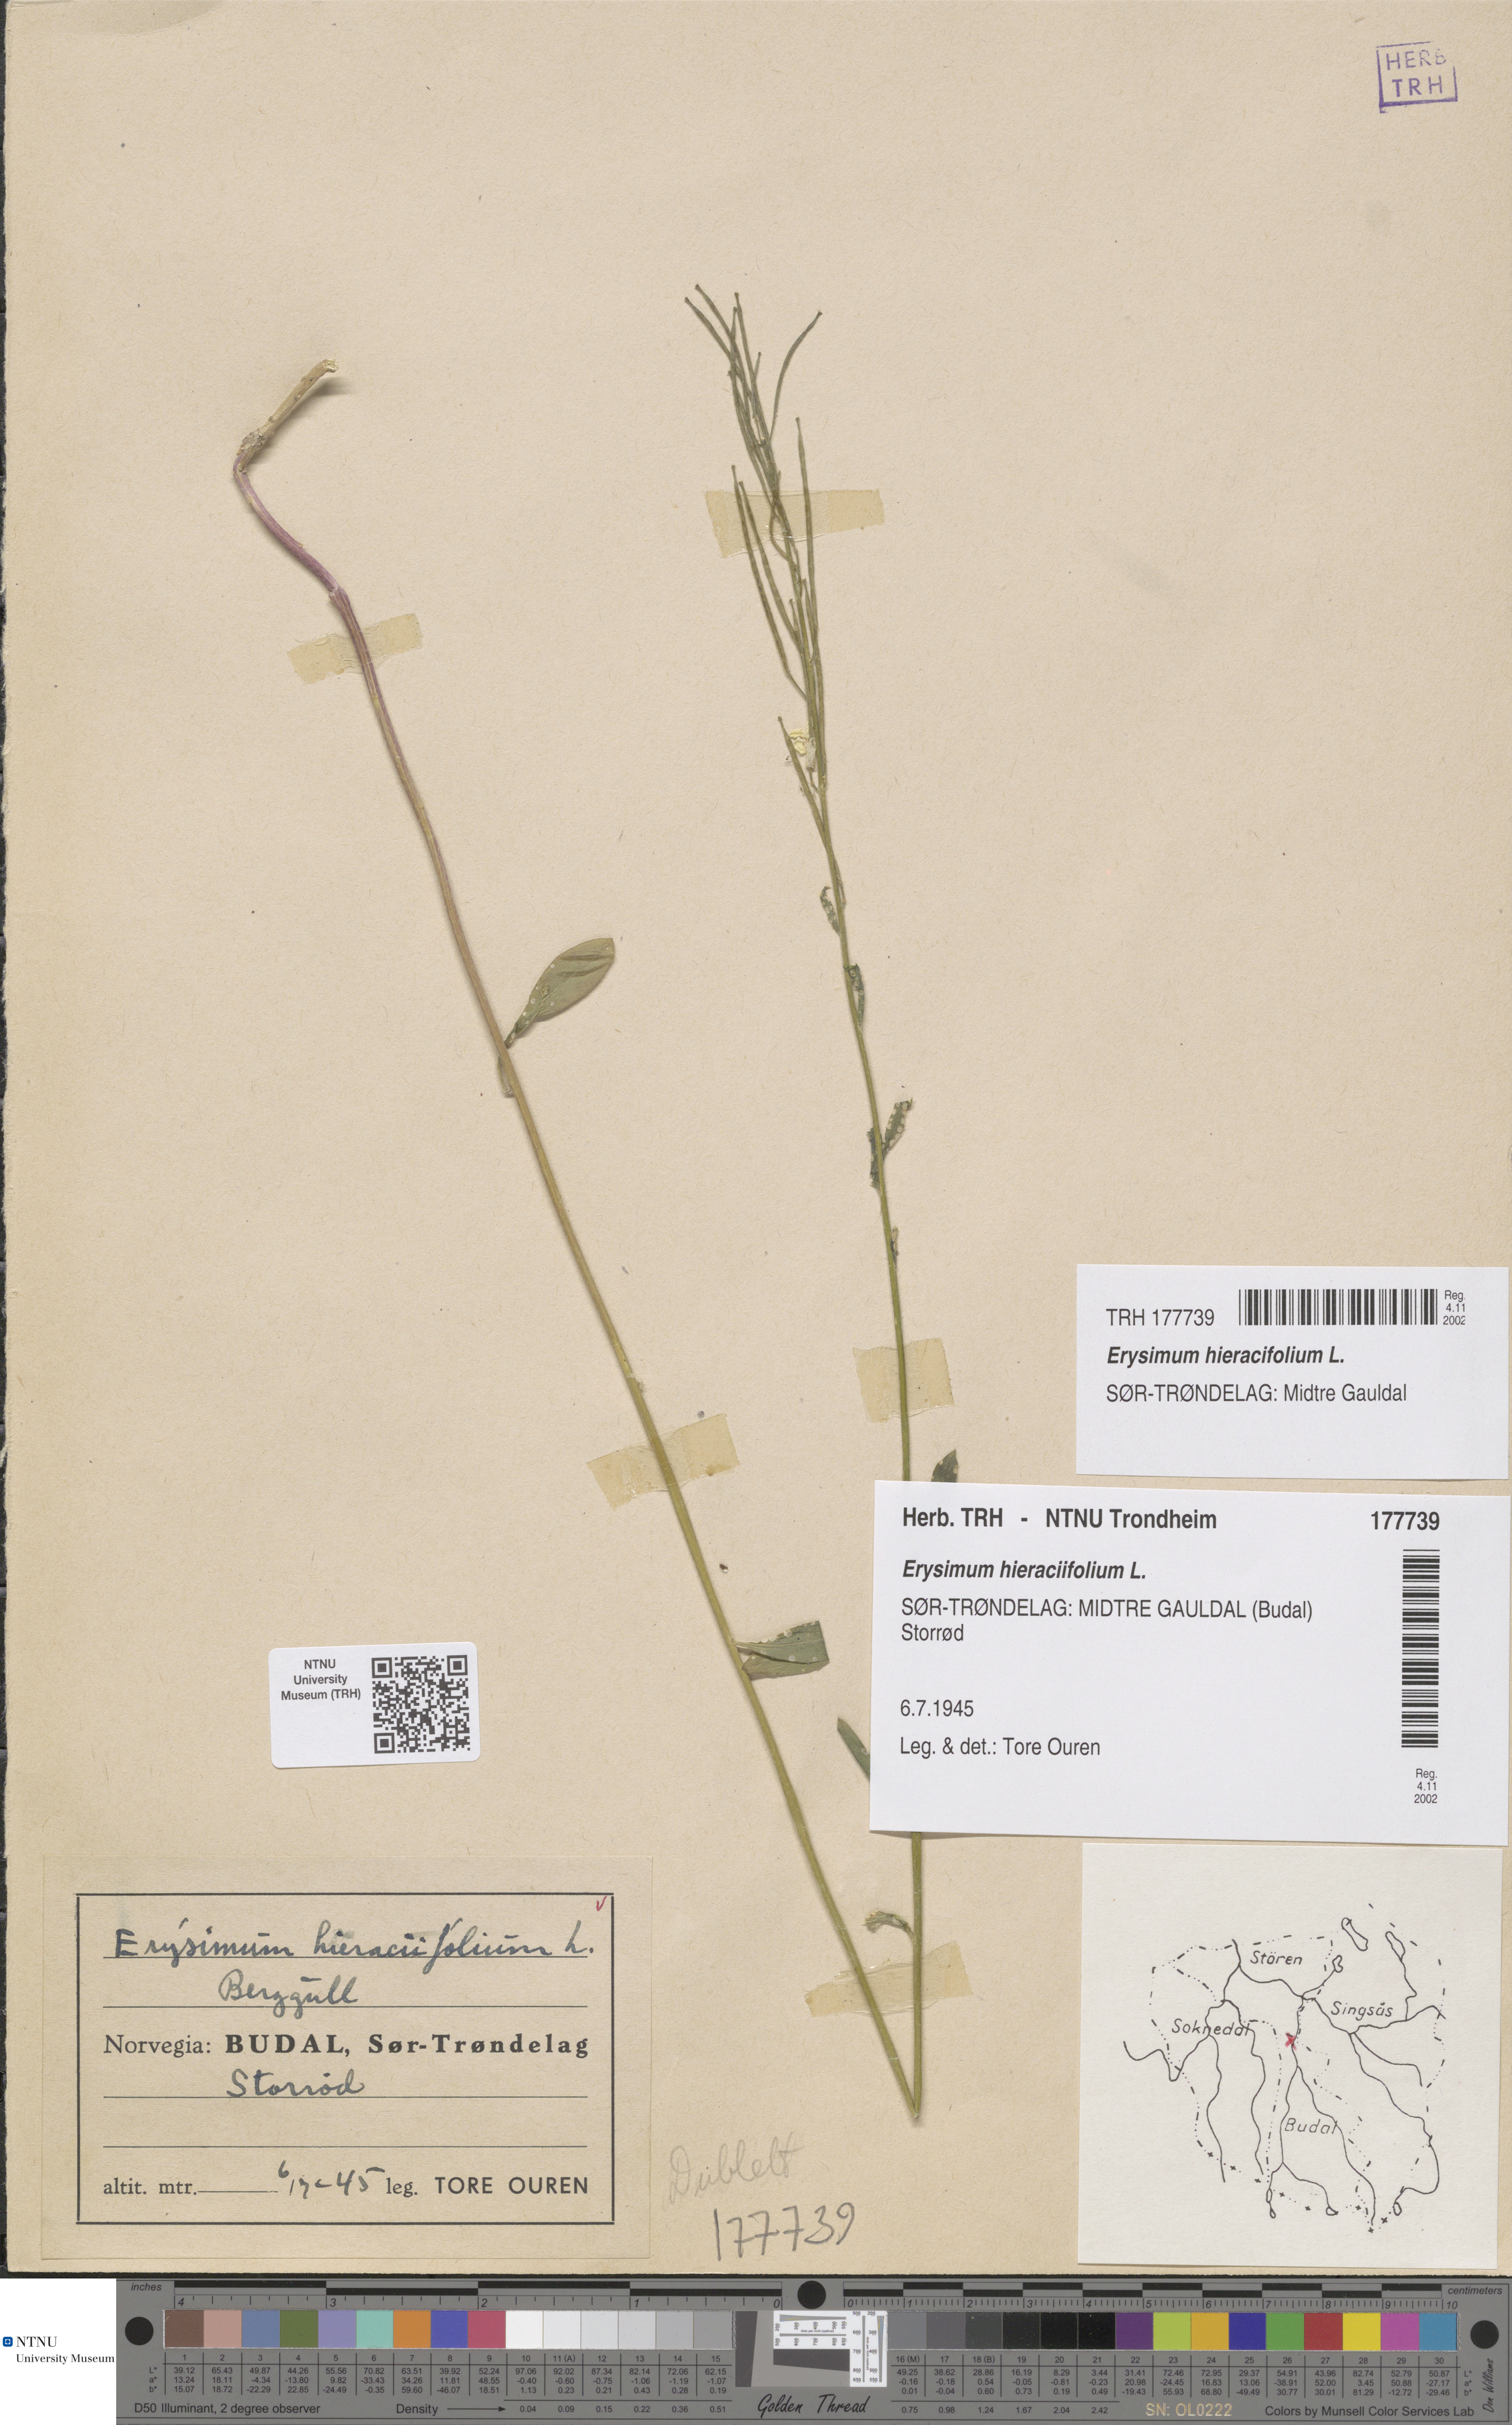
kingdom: Plantae
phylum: Tracheophyta
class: Magnoliopsida
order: Brassicales
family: Brassicaceae
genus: Erysimum
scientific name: Erysimum virgatum
